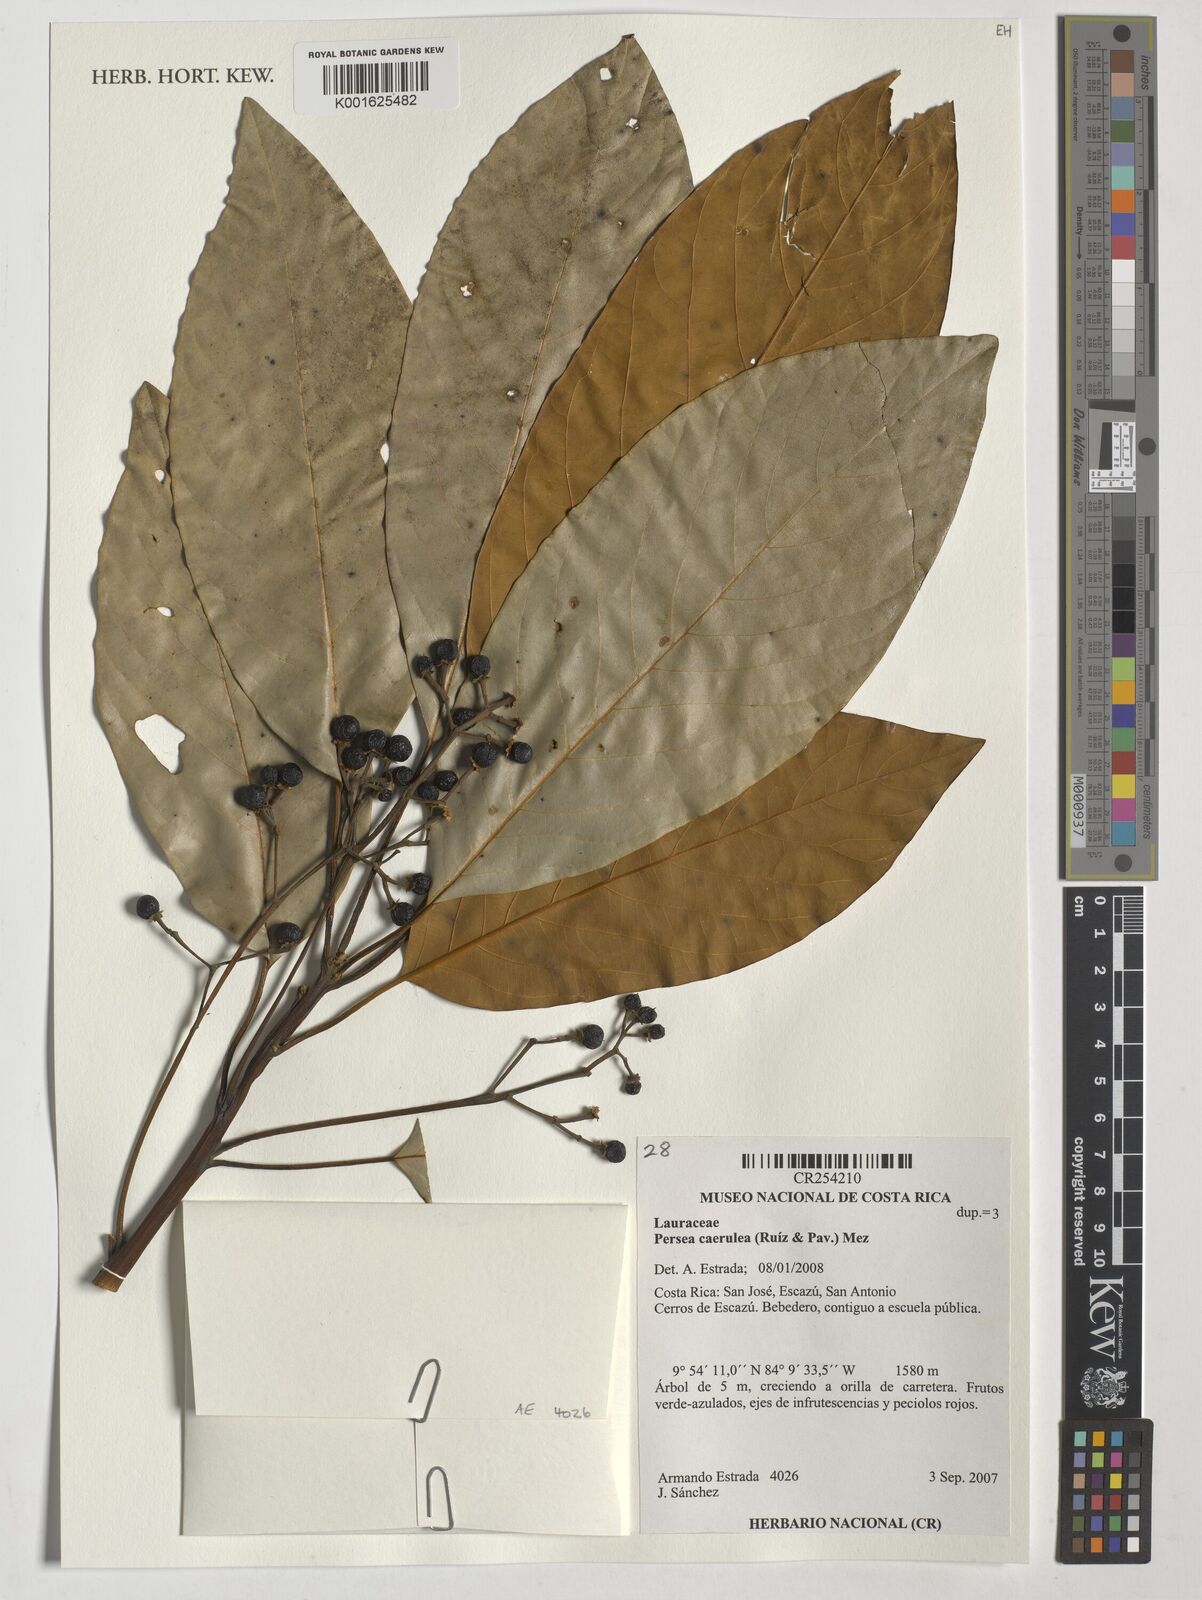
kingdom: Plantae
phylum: Tracheophyta
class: Magnoliopsida
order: Laurales
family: Lauraceae
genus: Persea
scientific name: Persea caerulea
